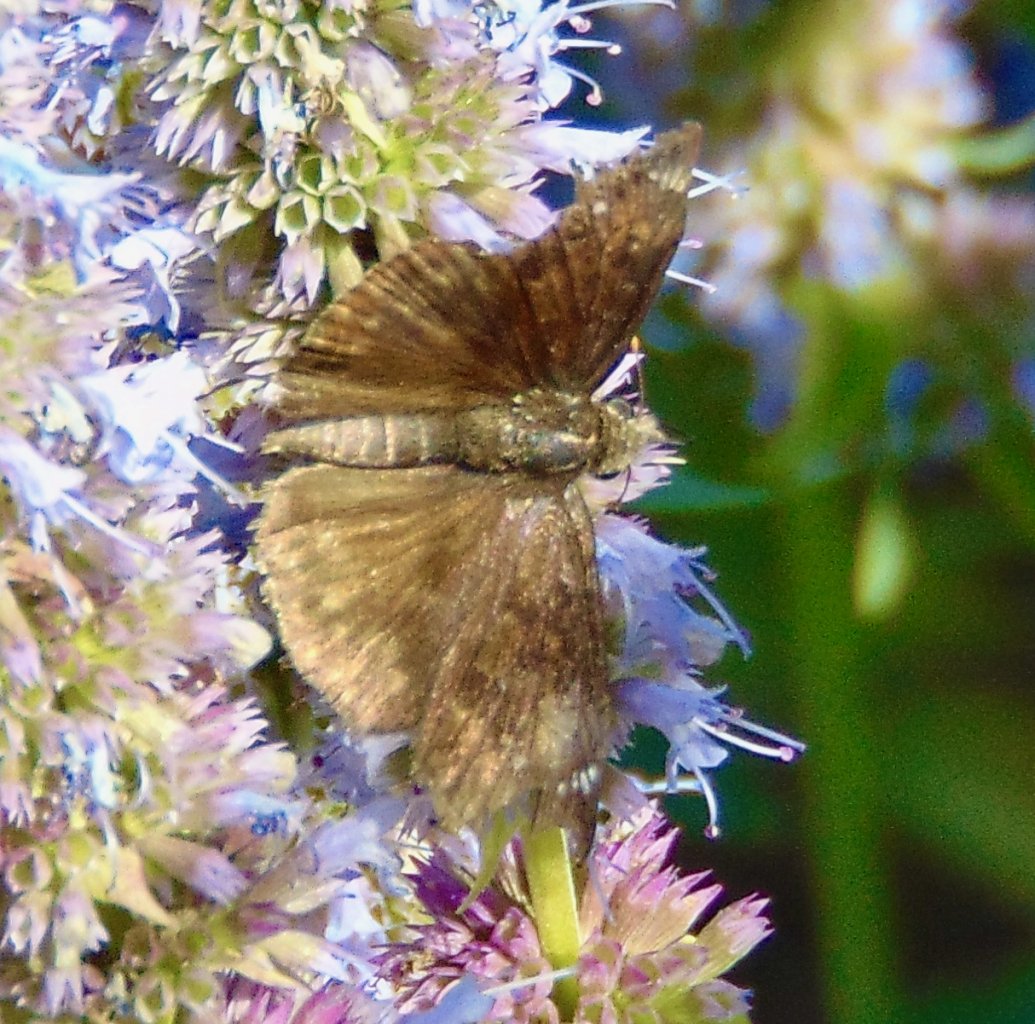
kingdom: Animalia
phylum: Arthropoda
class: Insecta
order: Lepidoptera
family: Hesperiidae
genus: Gesta
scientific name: Gesta
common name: Wild Indigo Duskywing
